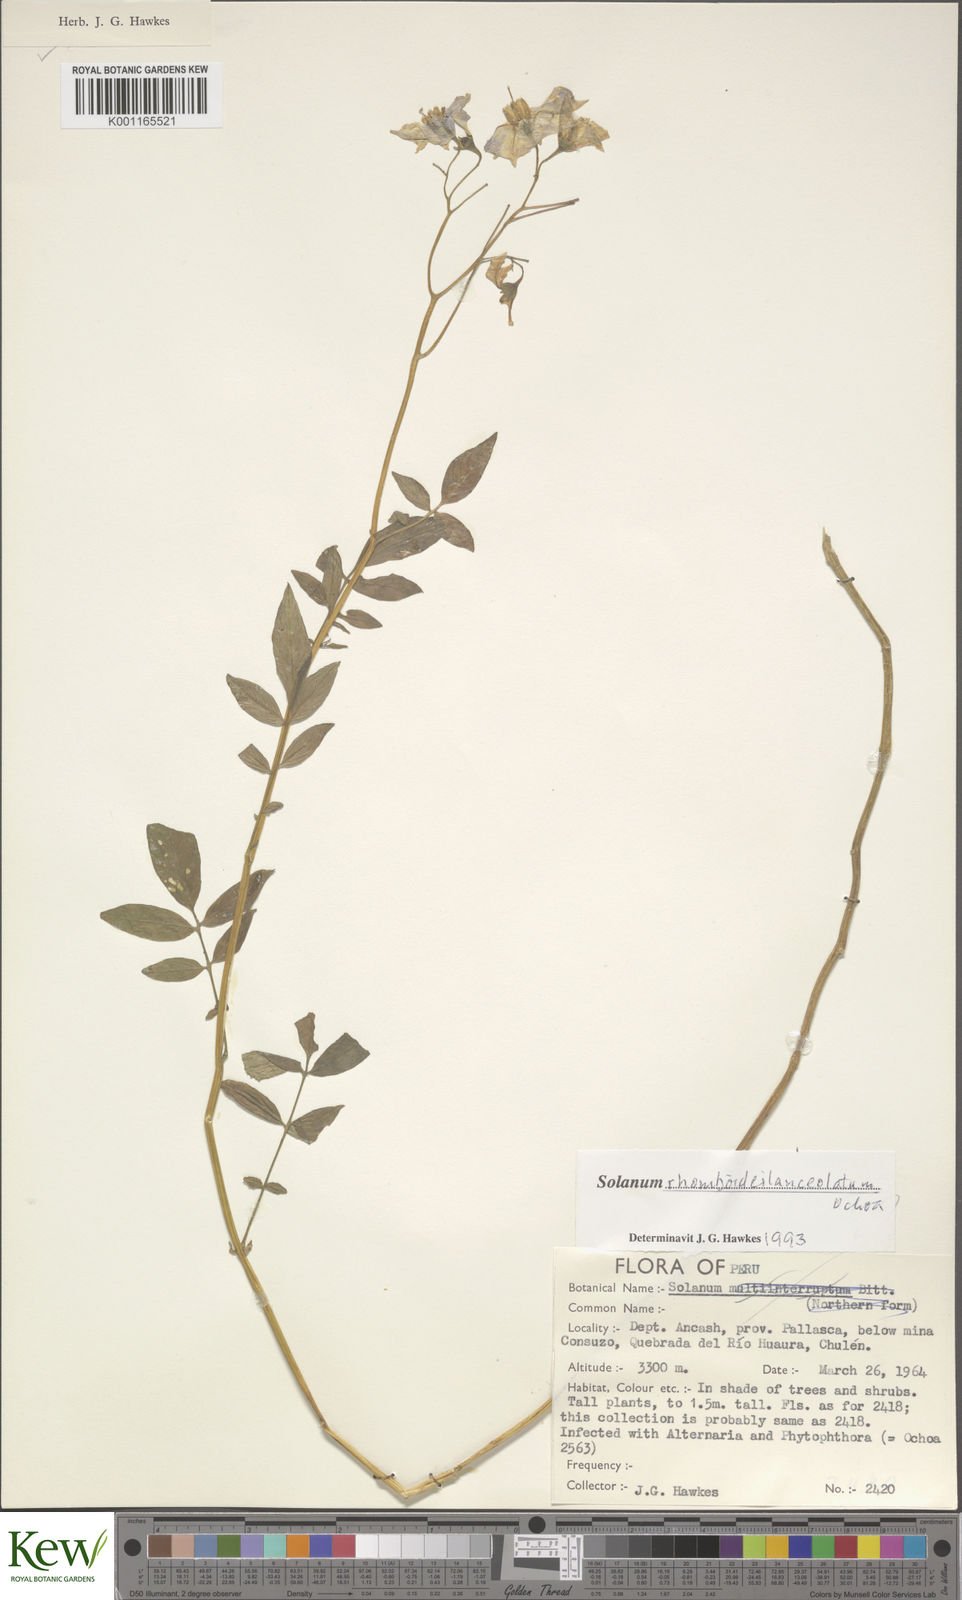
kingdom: Plantae
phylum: Tracheophyta
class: Magnoliopsida
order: Solanales
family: Solanaceae
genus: Solanum
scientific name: Solanum rhomboideilanceolatum
